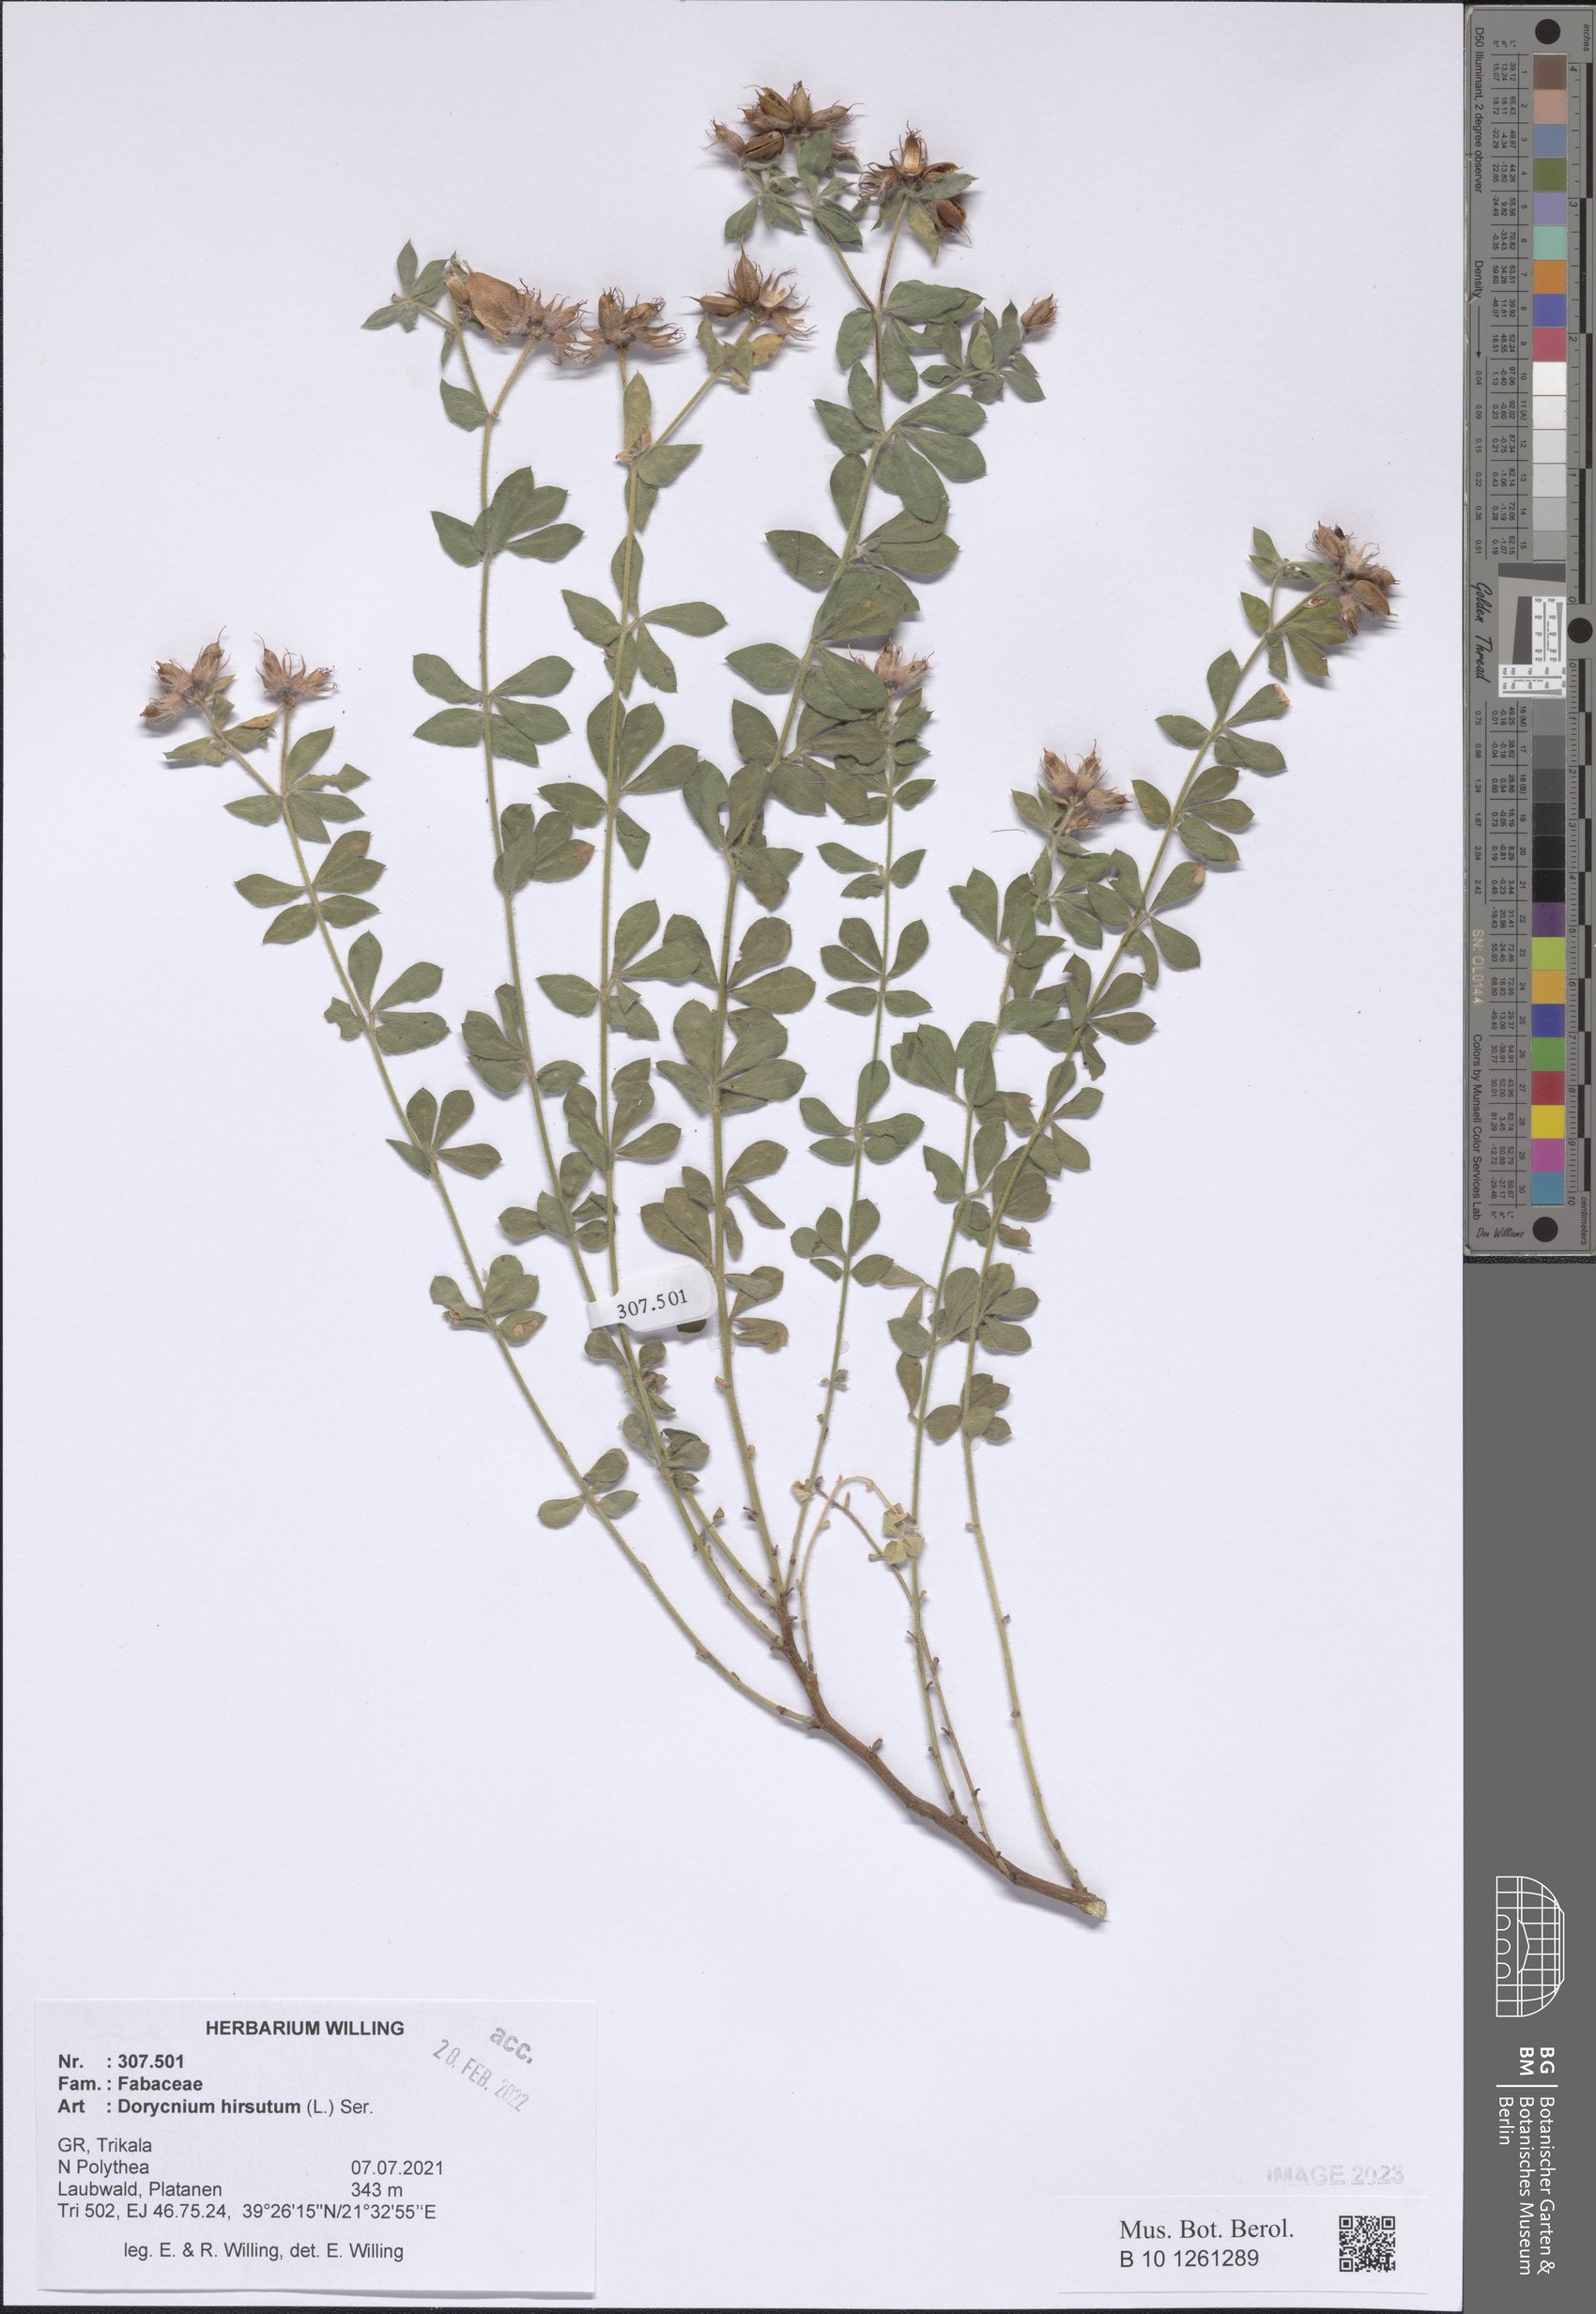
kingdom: Plantae
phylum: Tracheophyta
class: Magnoliopsida
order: Fabales
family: Fabaceae
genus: Lotus
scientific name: Lotus hirsutus
